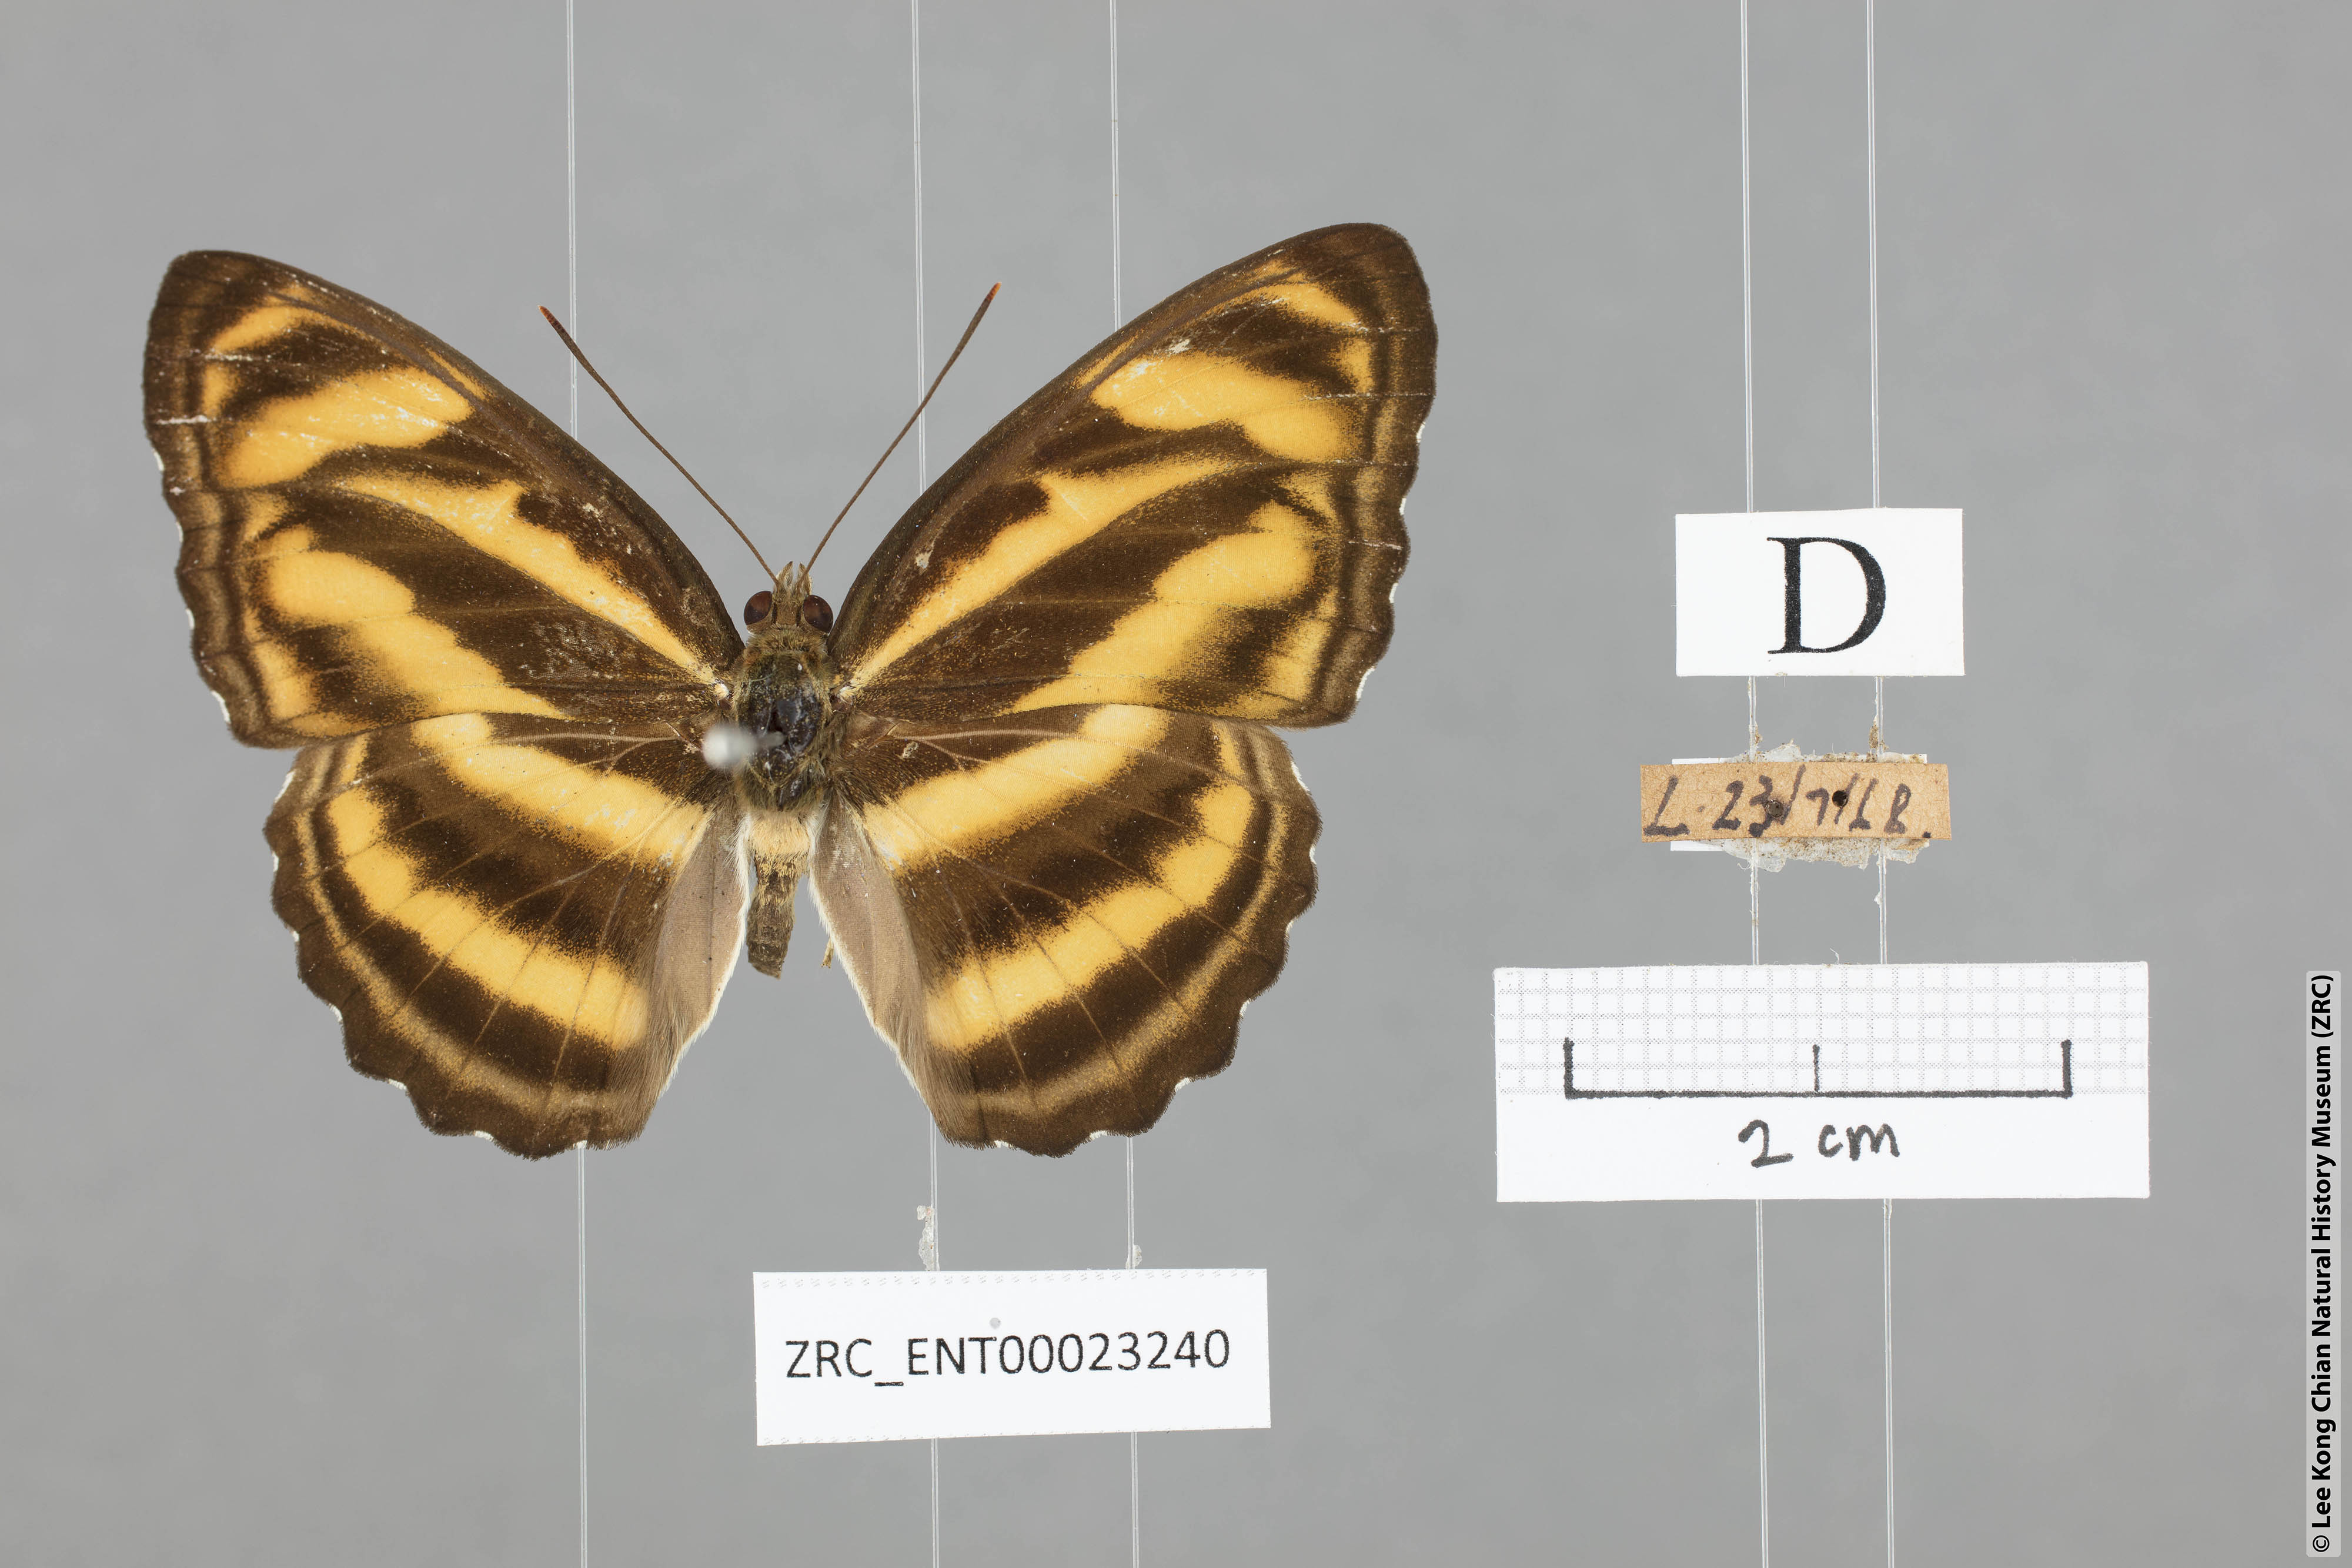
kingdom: Animalia
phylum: Arthropoda
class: Insecta
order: Lepidoptera
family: Nymphalidae
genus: Parathyma
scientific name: Parathyma nefte
